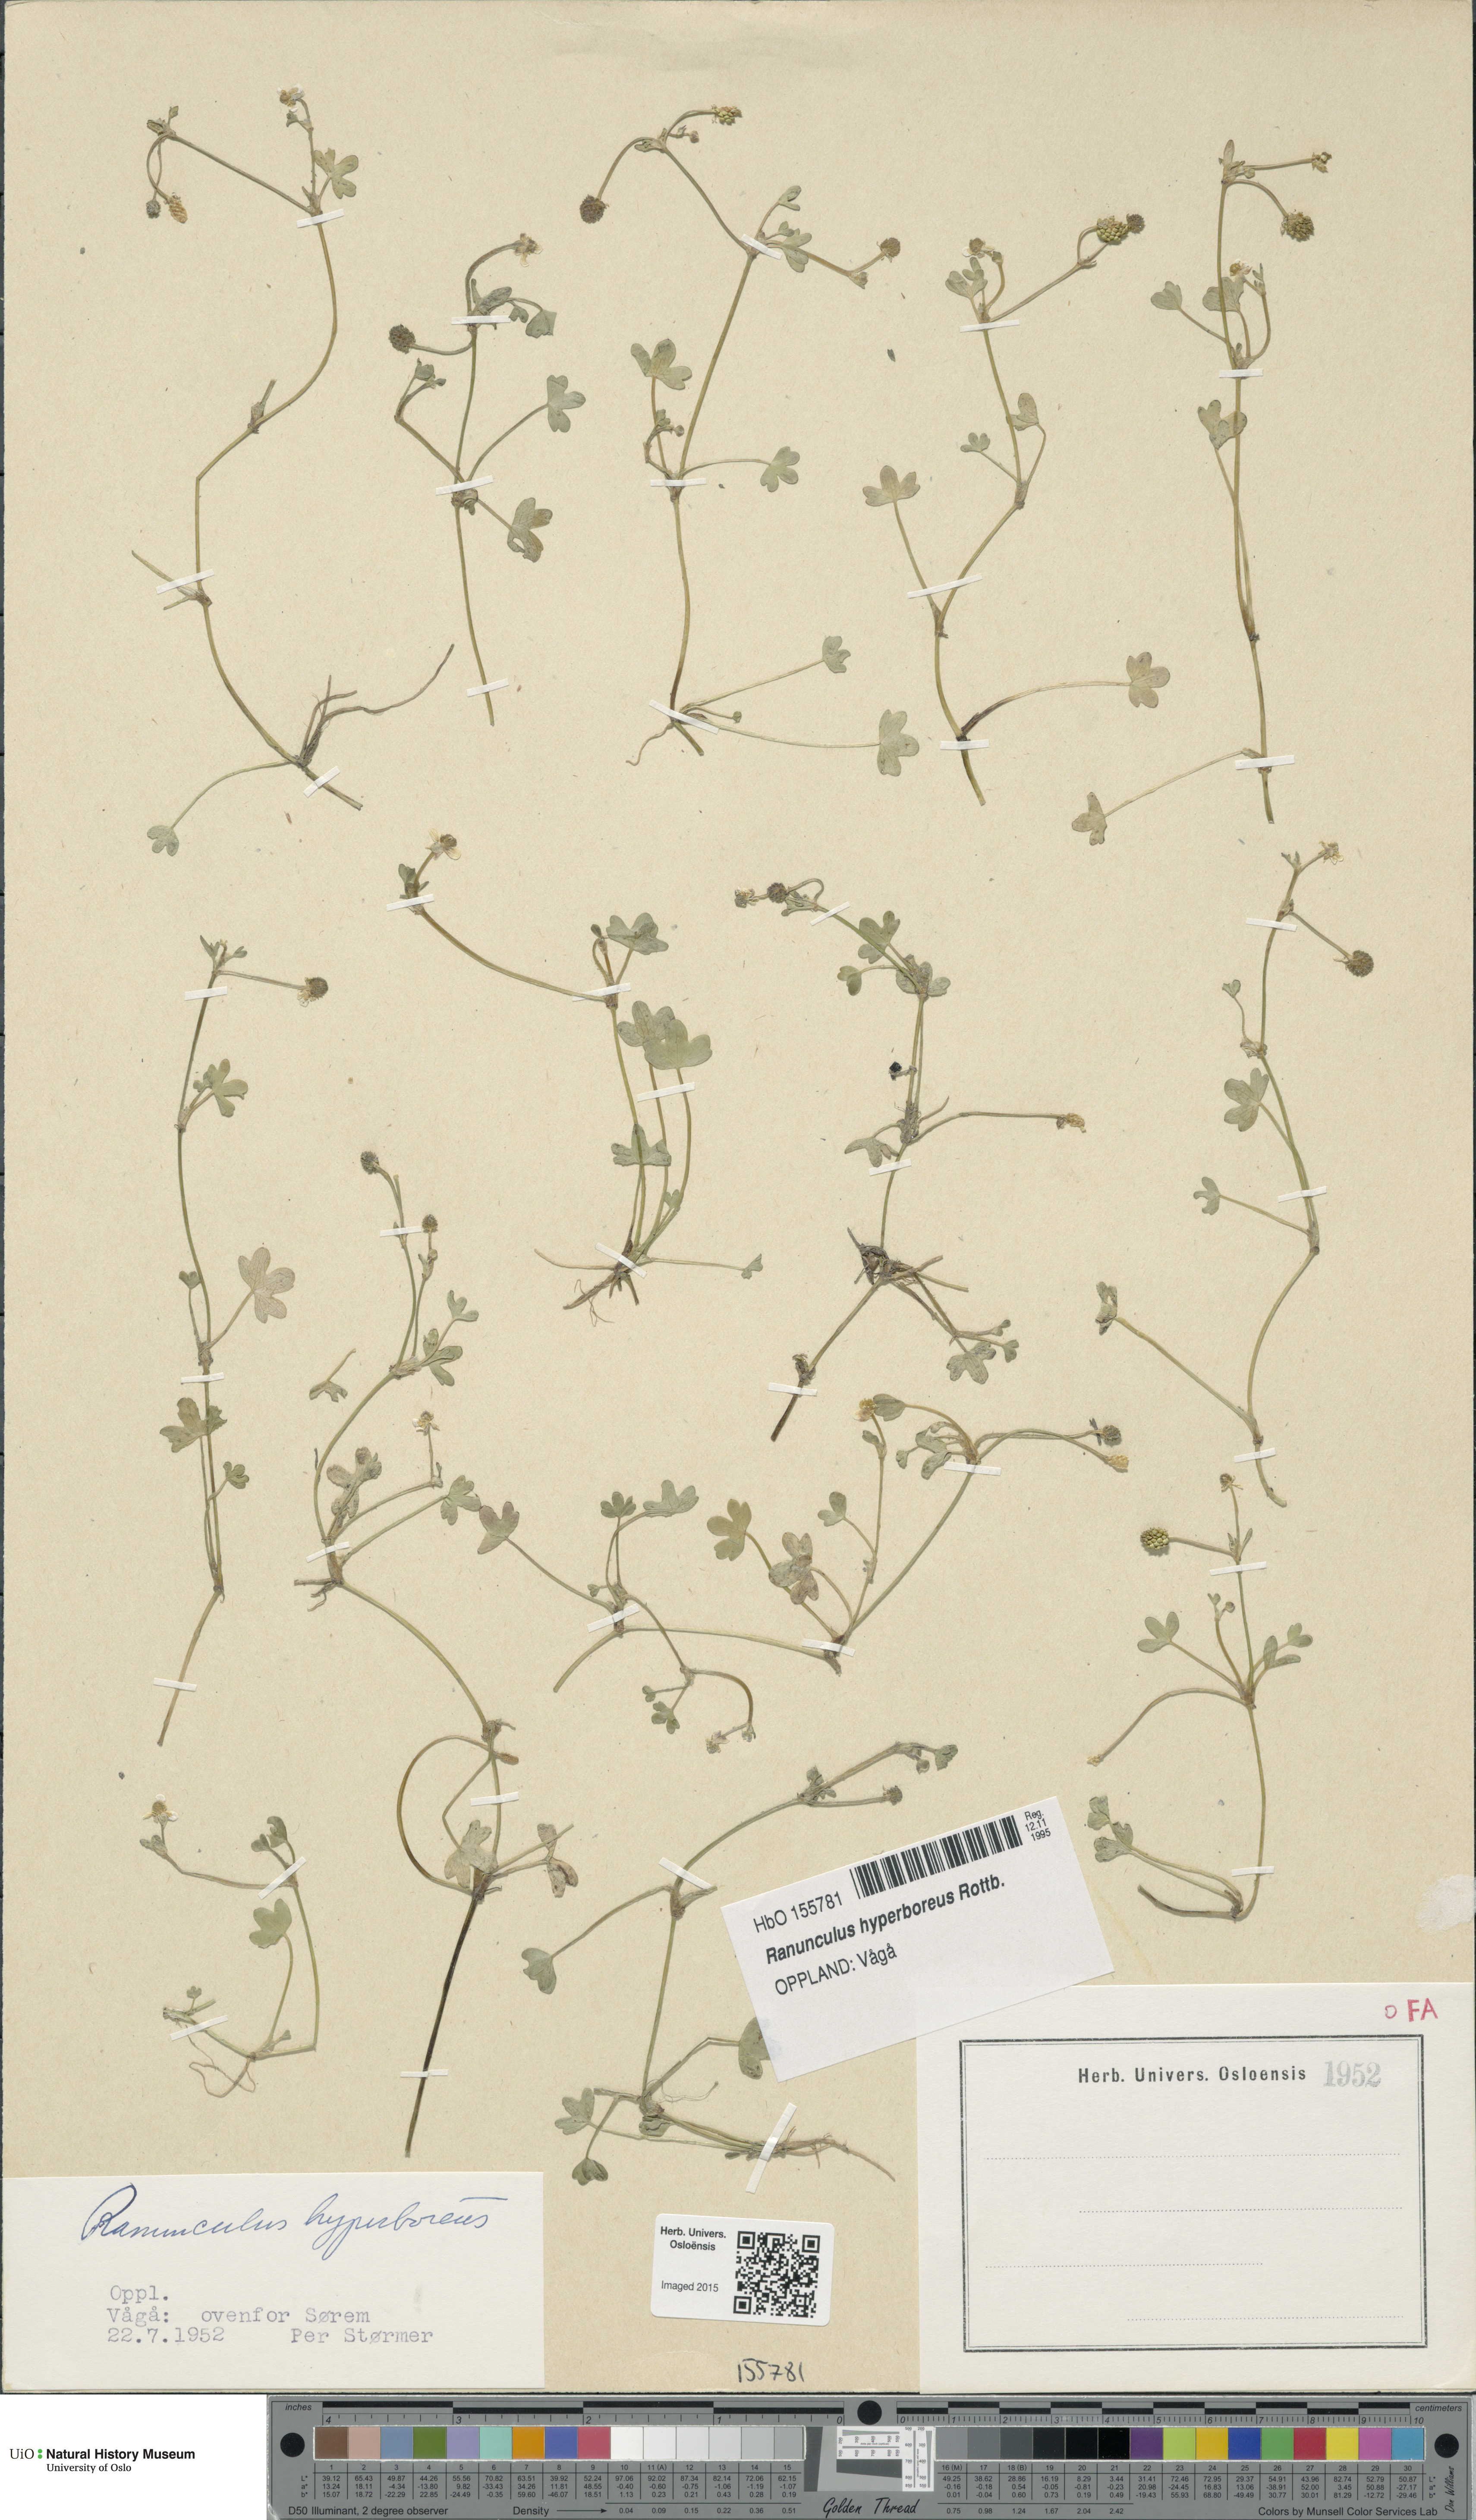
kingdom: Plantae
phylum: Tracheophyta
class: Magnoliopsida
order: Ranunculales
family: Ranunculaceae
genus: Ranunculus
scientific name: Ranunculus hyperboreus
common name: Arctic buttercup
